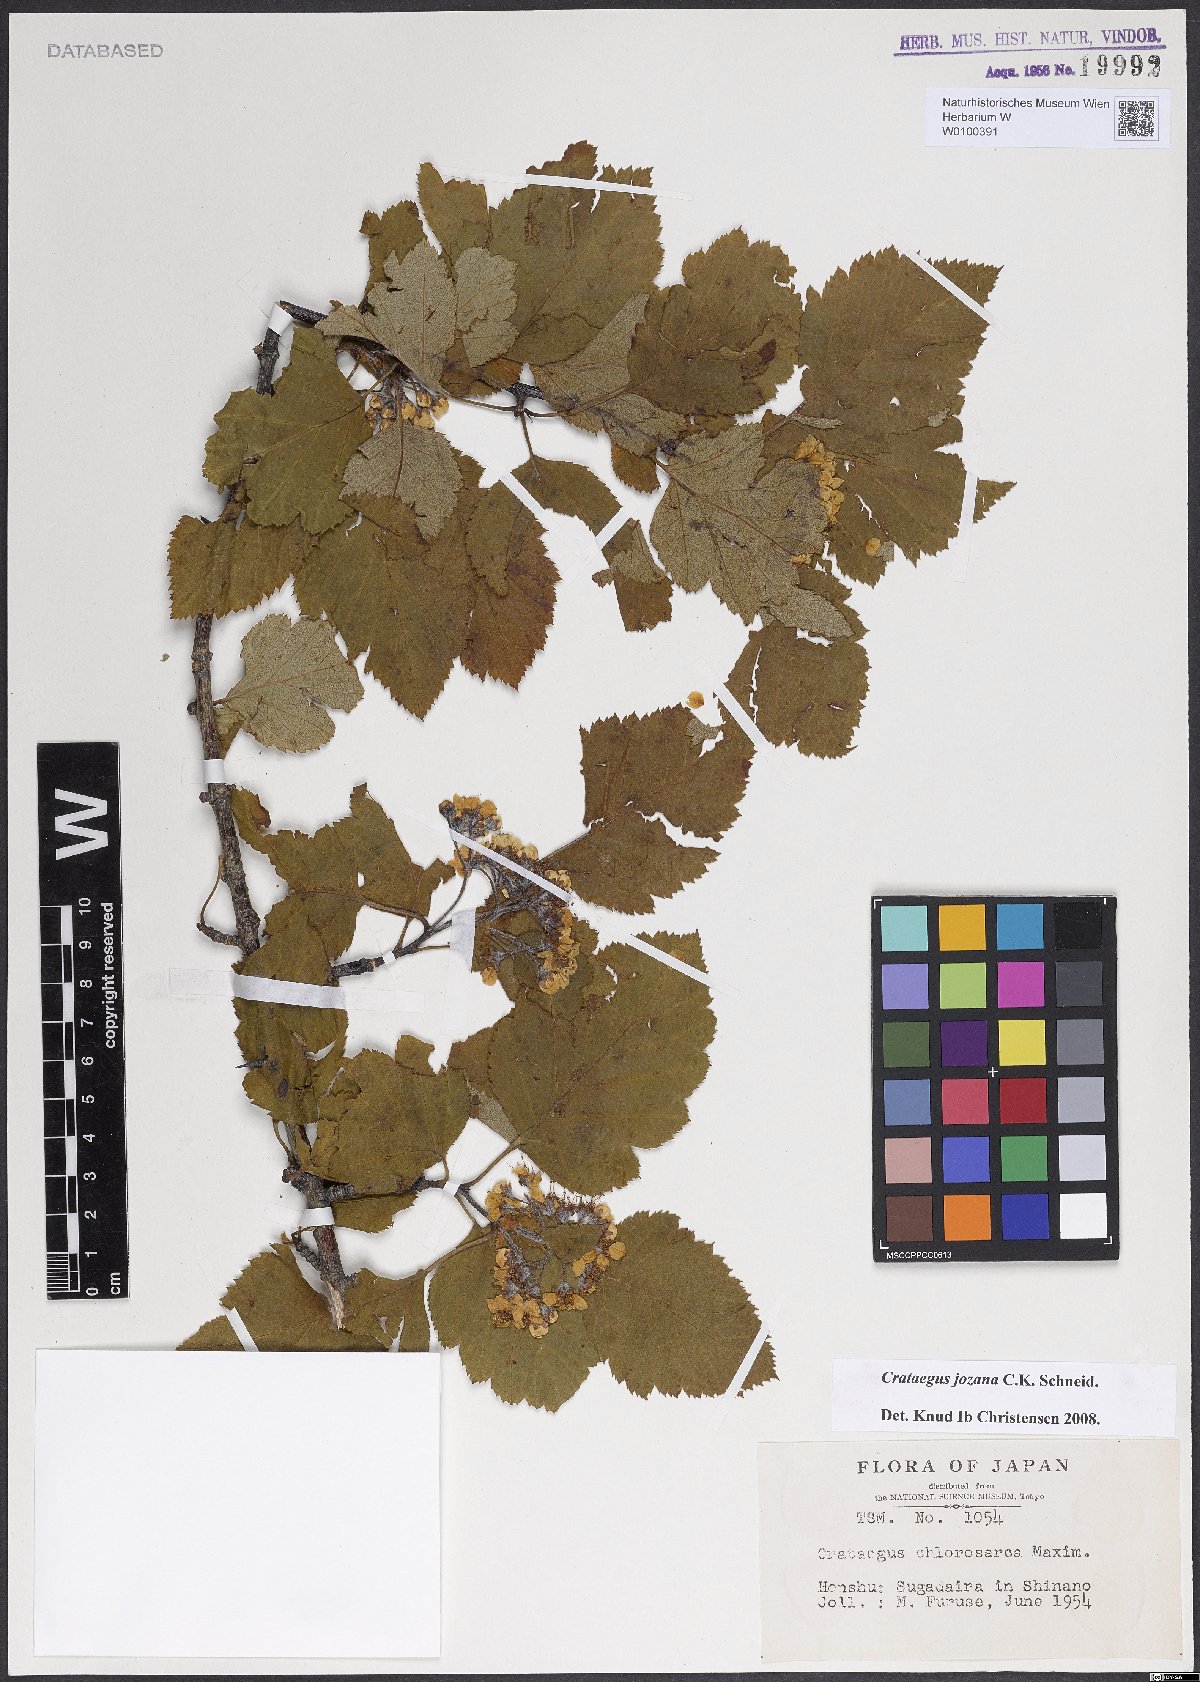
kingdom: Plantae
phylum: Tracheophyta
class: Magnoliopsida
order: Rosales
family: Rosaceae
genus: Crataegus
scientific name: Crataegus chlorosarca
